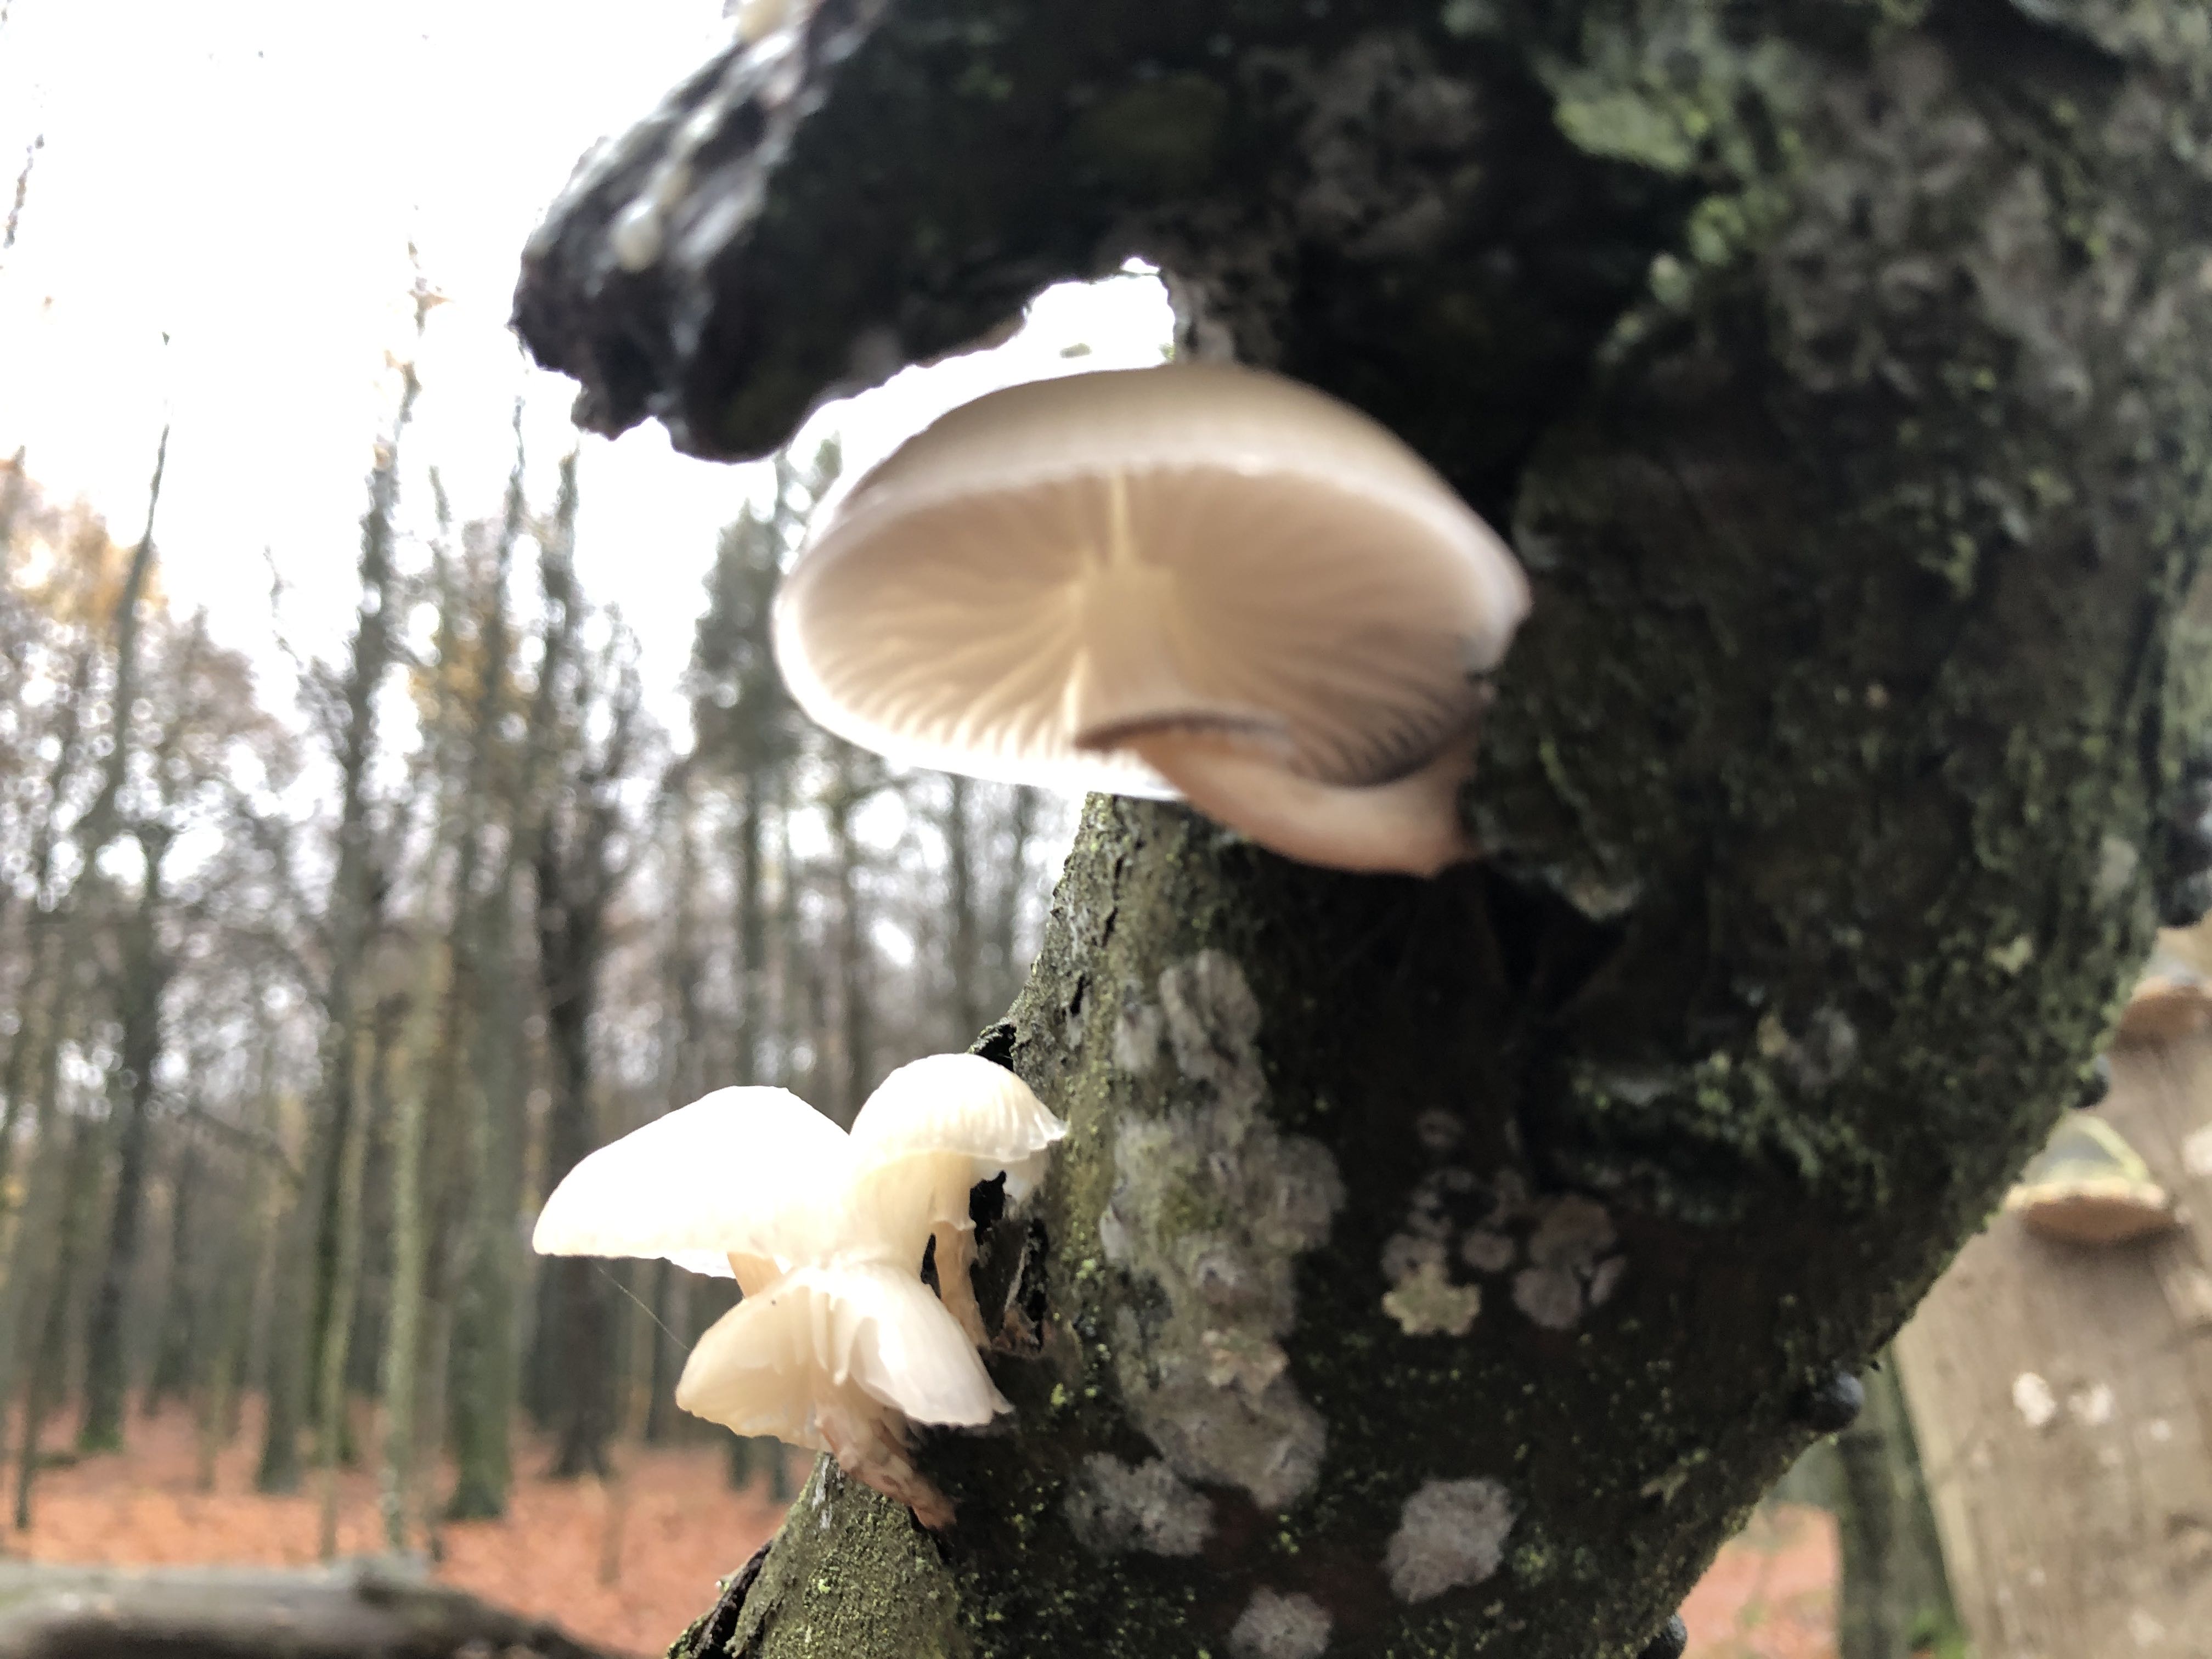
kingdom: Fungi
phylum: Basidiomycota
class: Agaricomycetes
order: Agaricales
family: Physalacriaceae
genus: Mucidula
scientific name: Mucidula mucida
